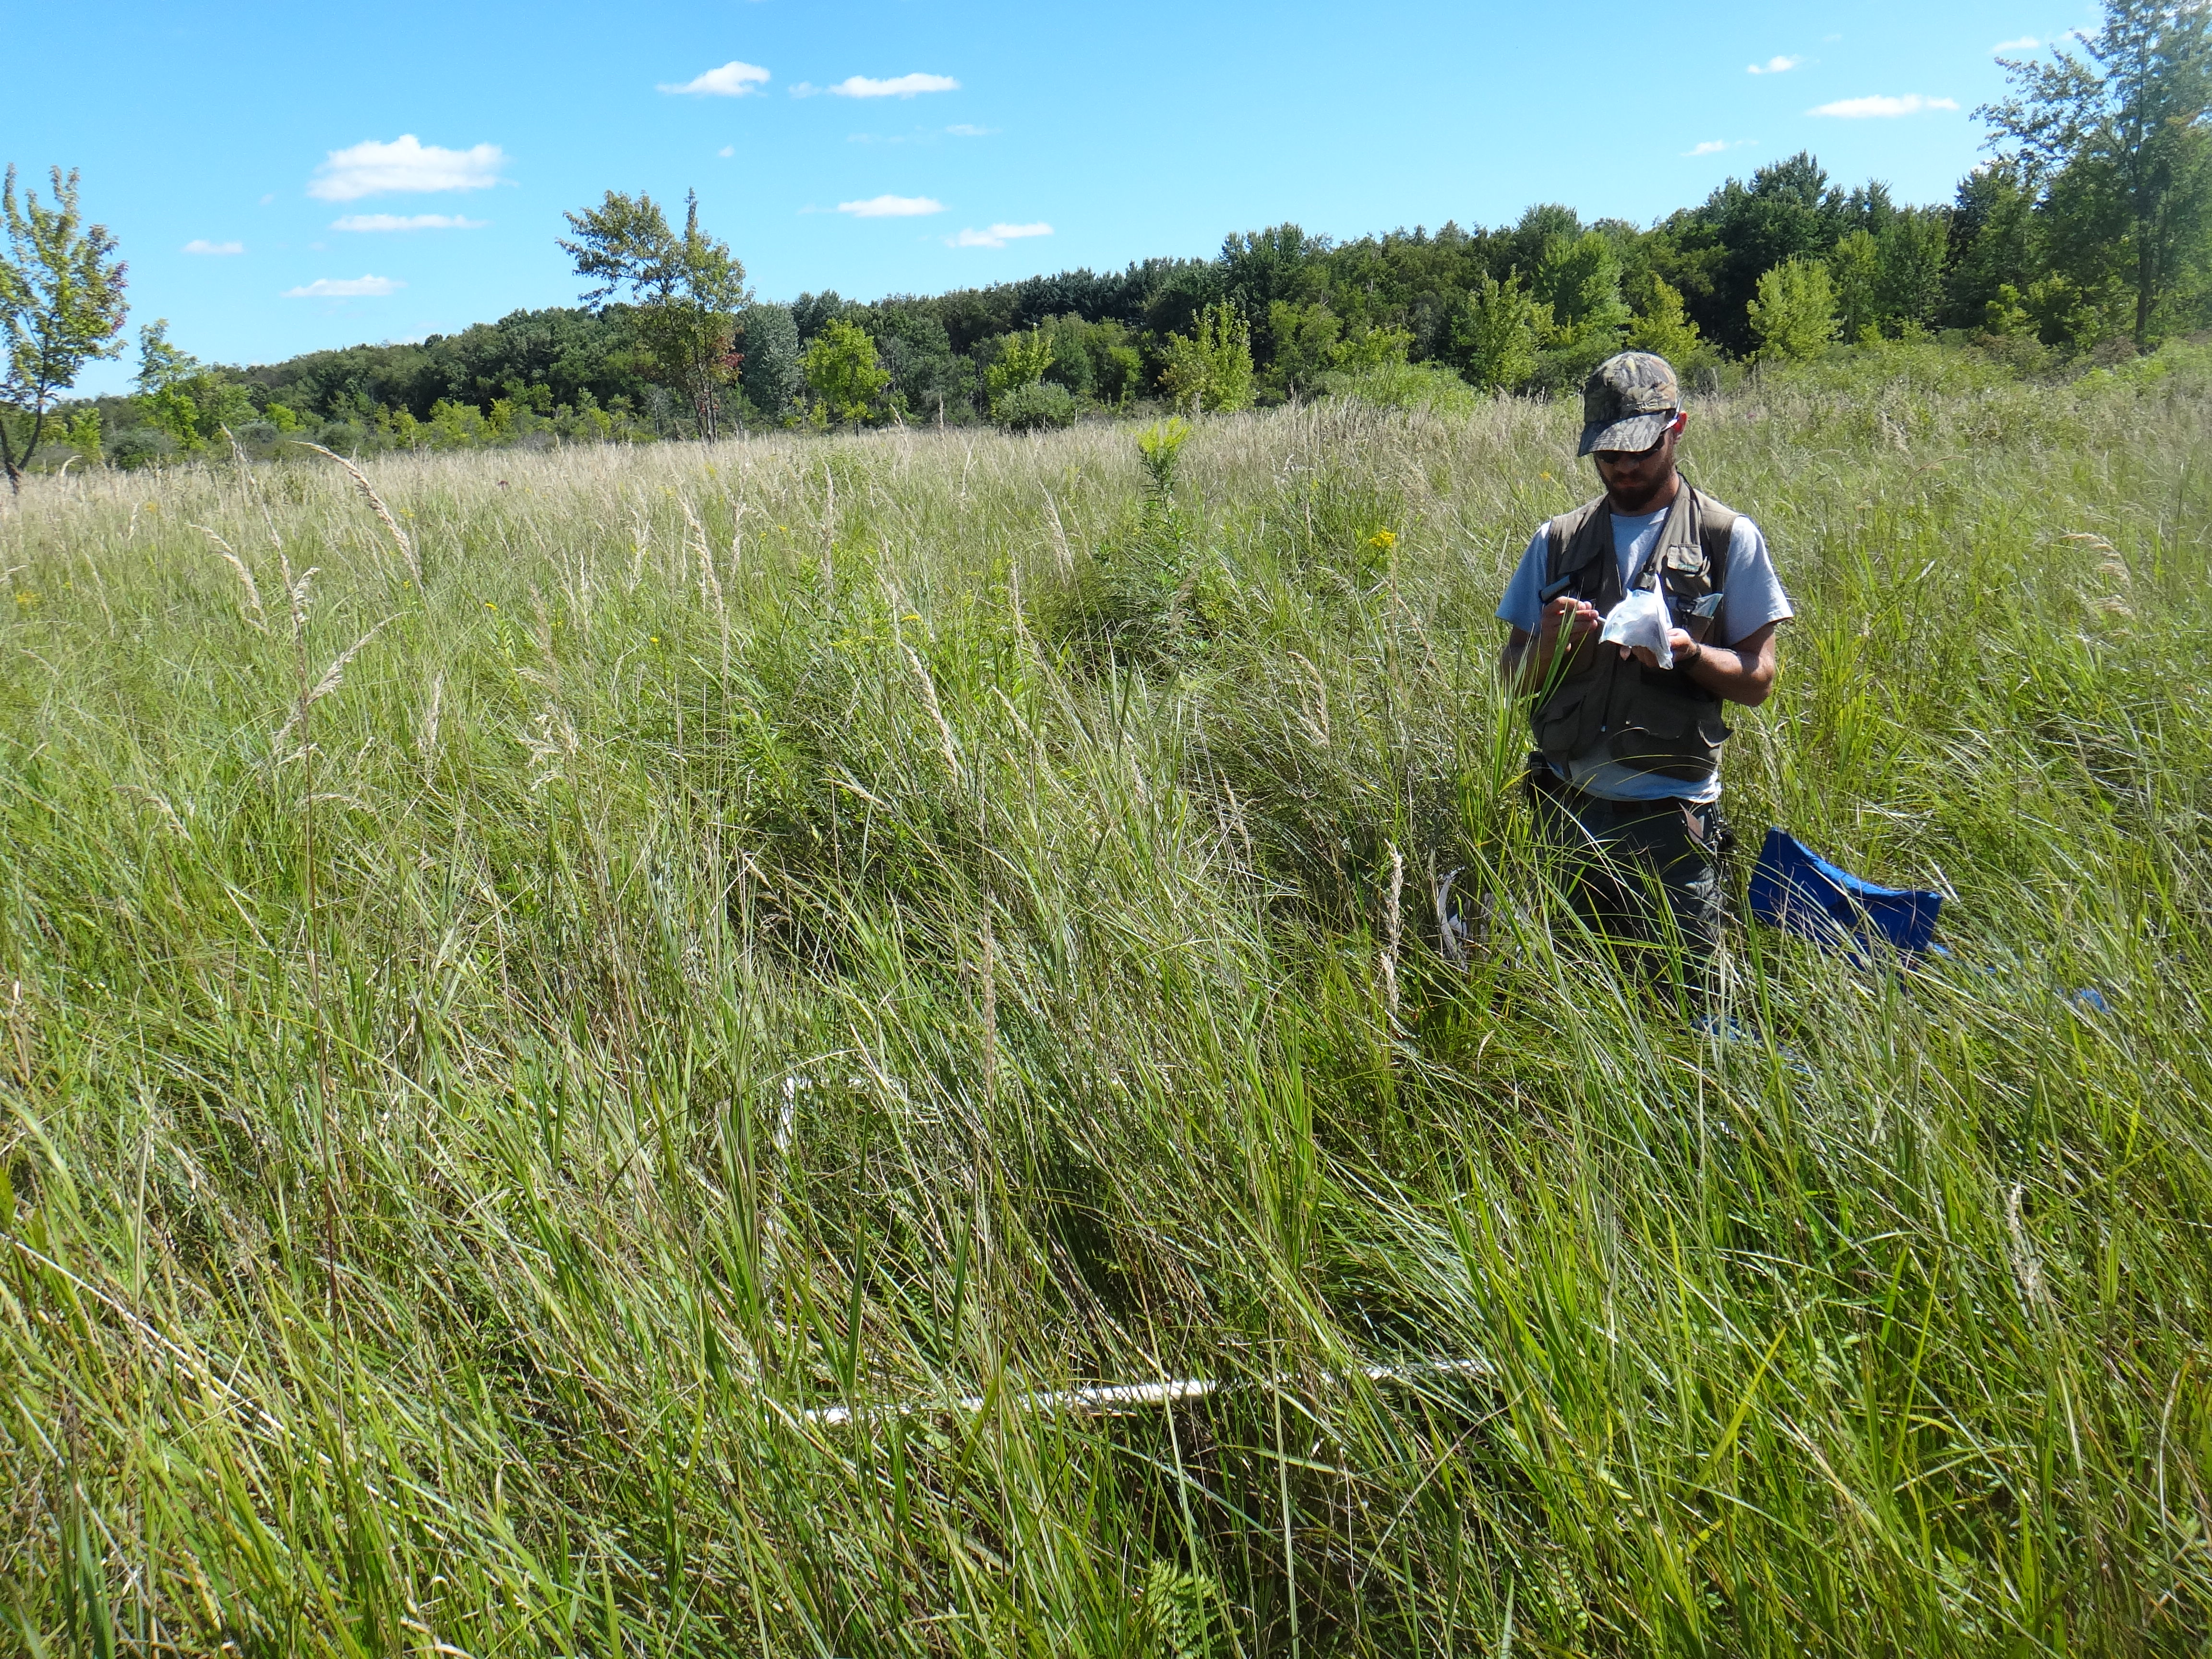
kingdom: Plantae
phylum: Tracheophyta
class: Magnoliopsida
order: Asterales
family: Campanulaceae
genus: Palustricodon
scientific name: Palustricodon aparinoides
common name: Bedstraw bellflower
